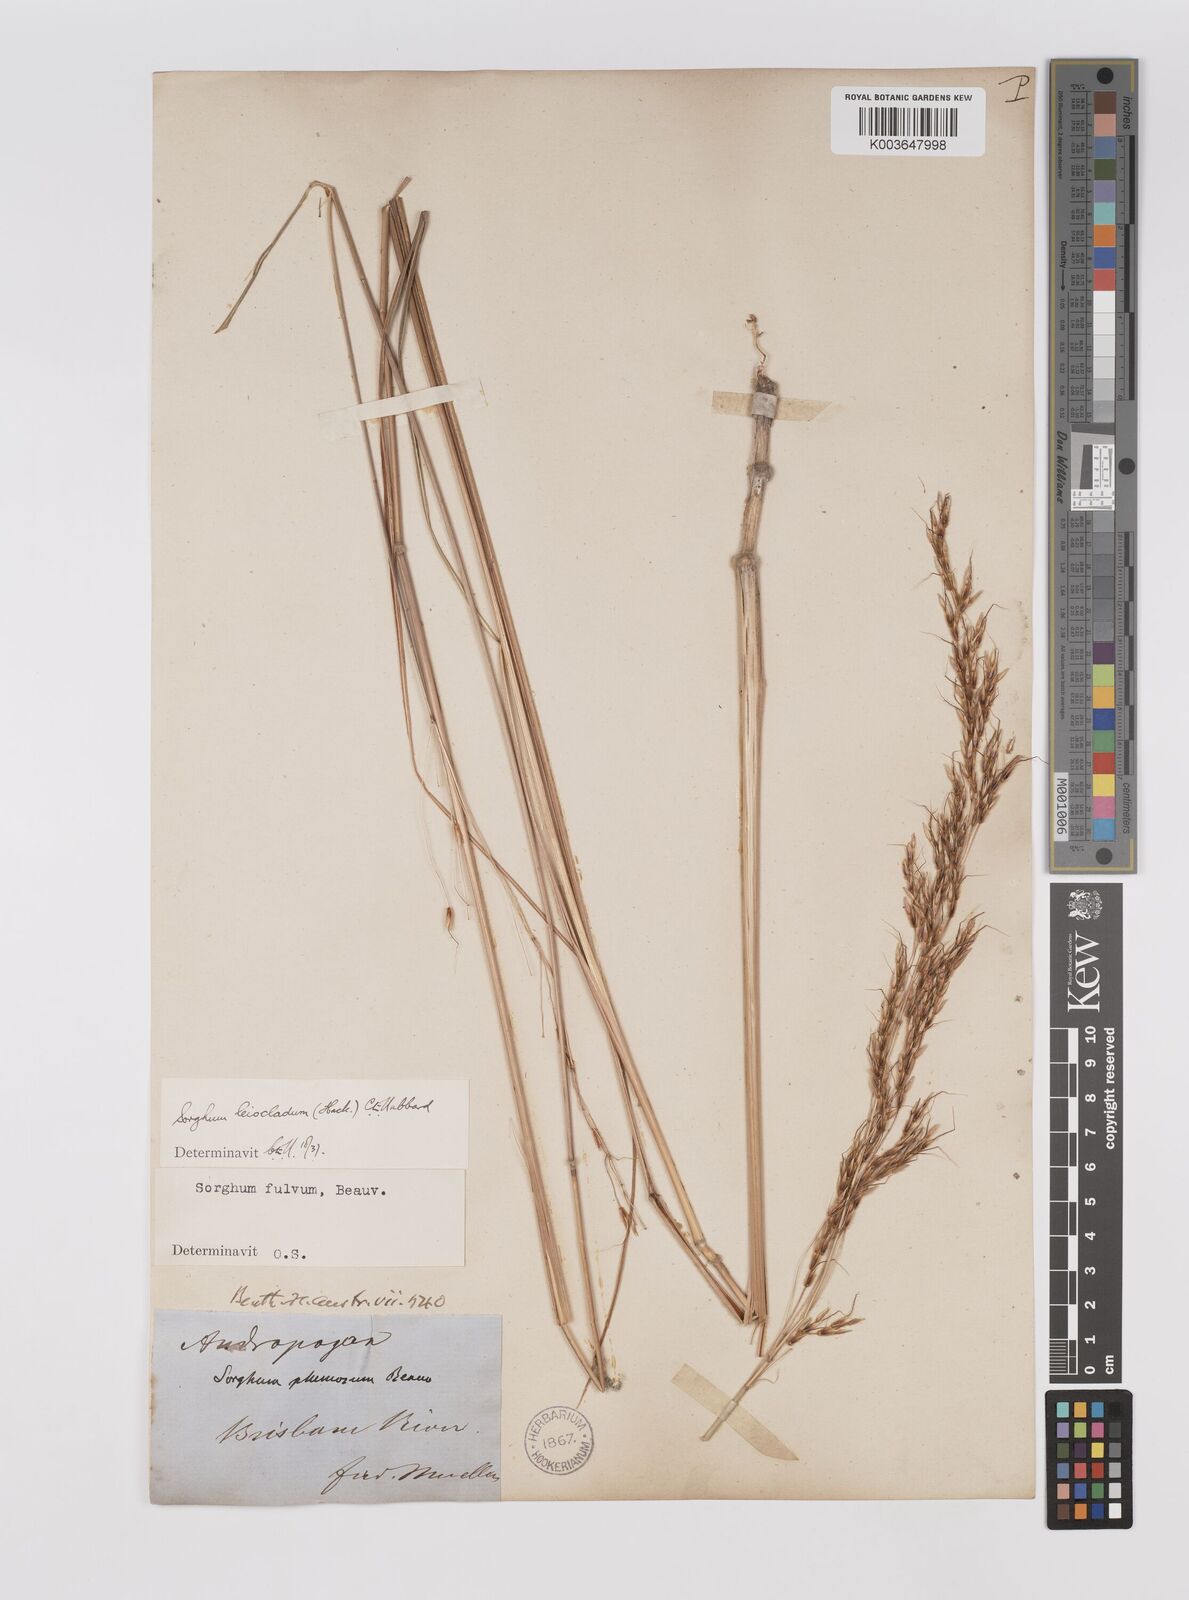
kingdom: Plantae
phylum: Tracheophyta
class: Liliopsida
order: Poales
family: Poaceae
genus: Sarga
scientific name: Sarga leioclada
